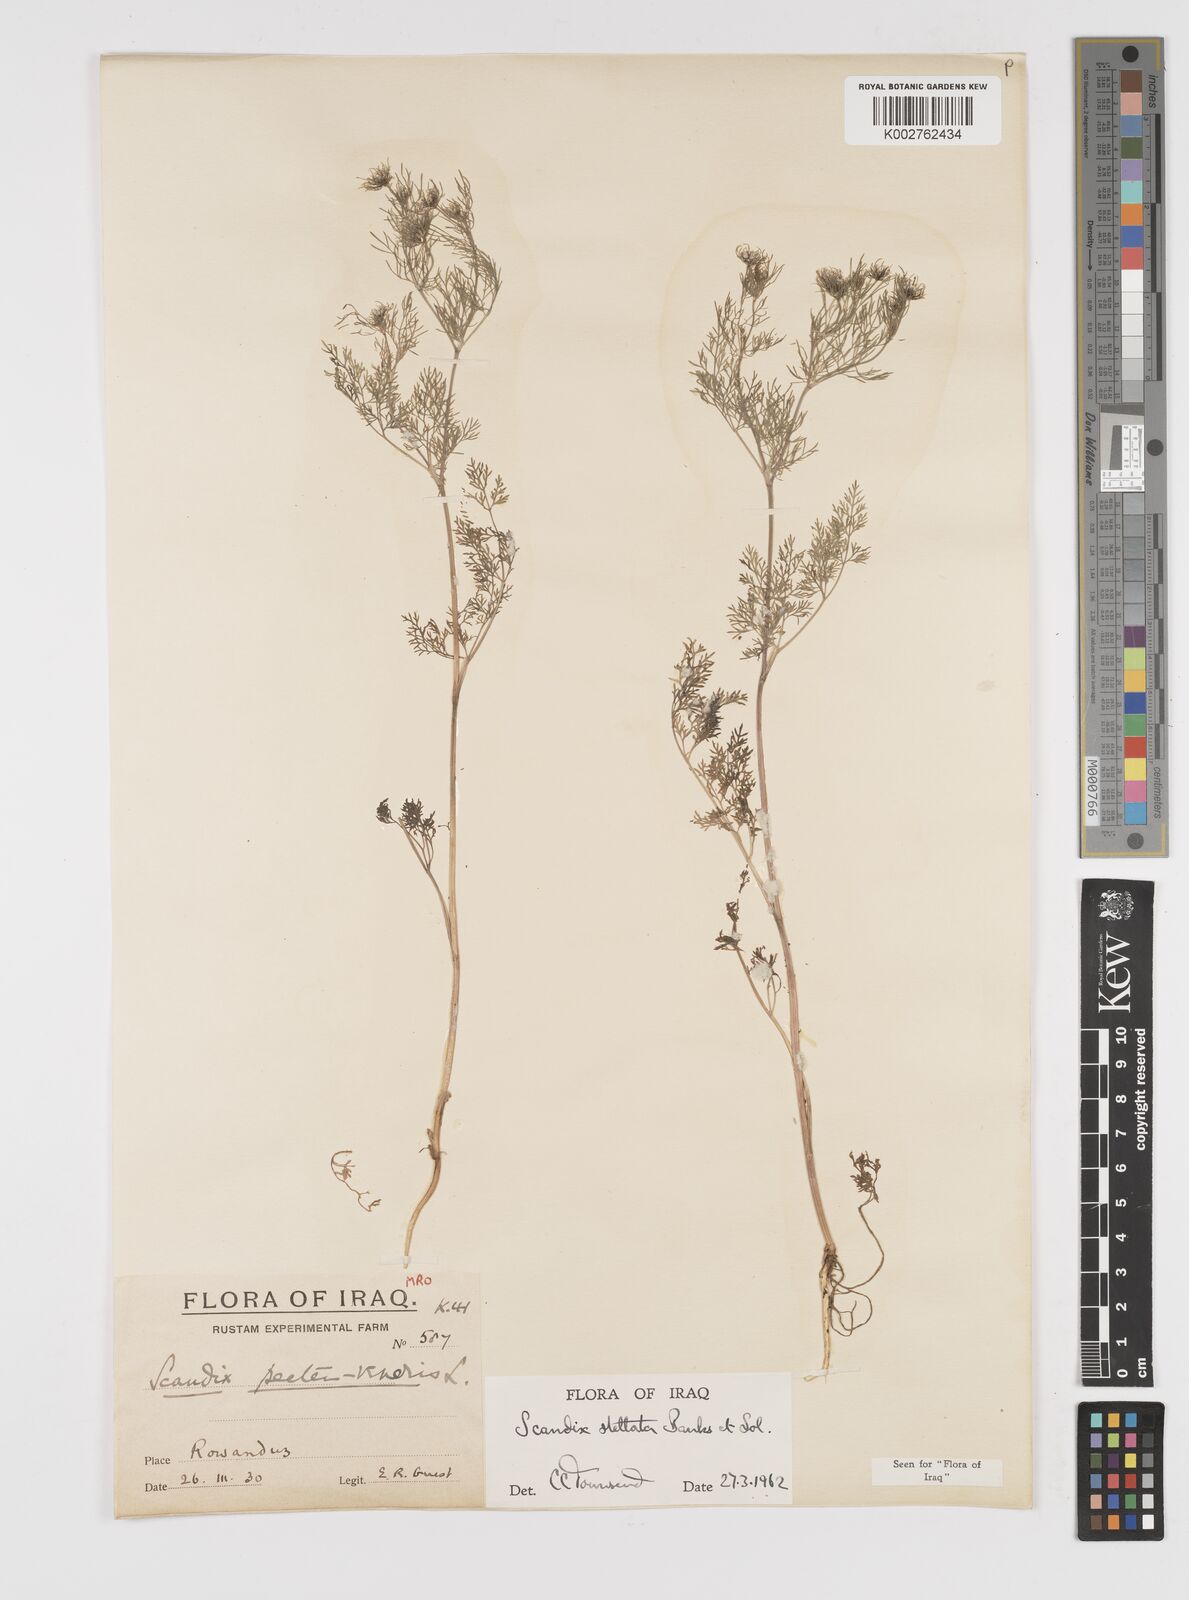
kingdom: Plantae
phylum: Tracheophyta
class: Magnoliopsida
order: Apiales
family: Apiaceae
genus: Scandix
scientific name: Scandix stellata
